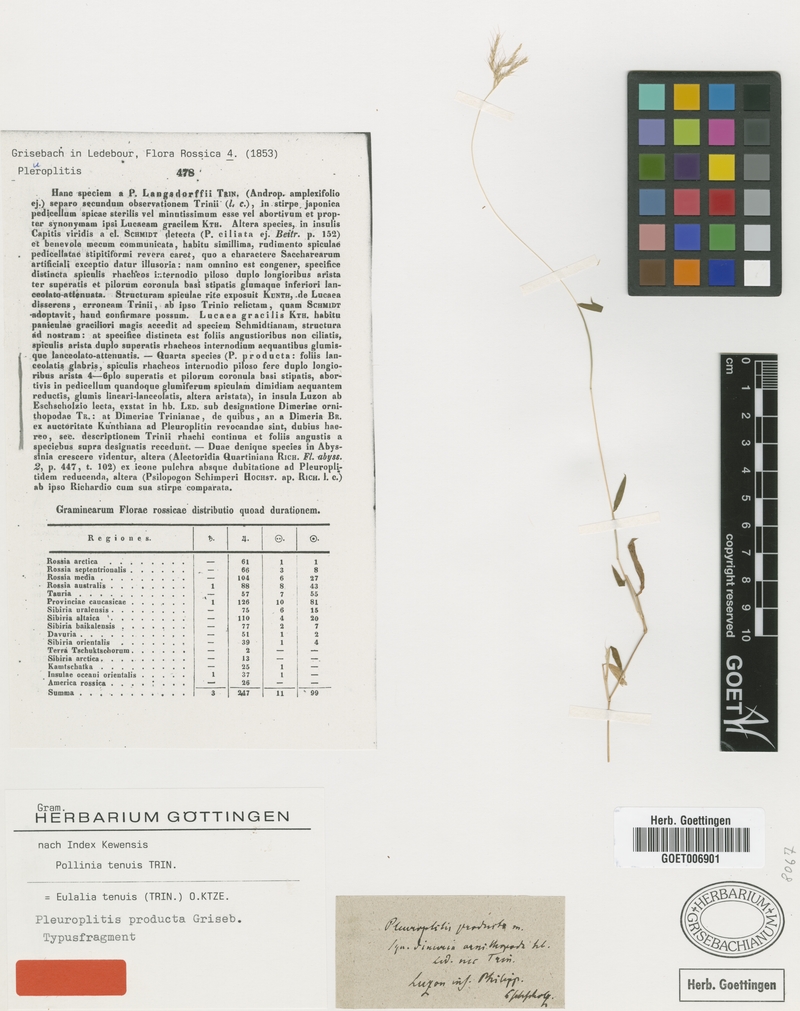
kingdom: Plantae
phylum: Tracheophyta
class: Liliopsida
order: Poales
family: Poaceae
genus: Microstegium
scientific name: Microstegium tenue
